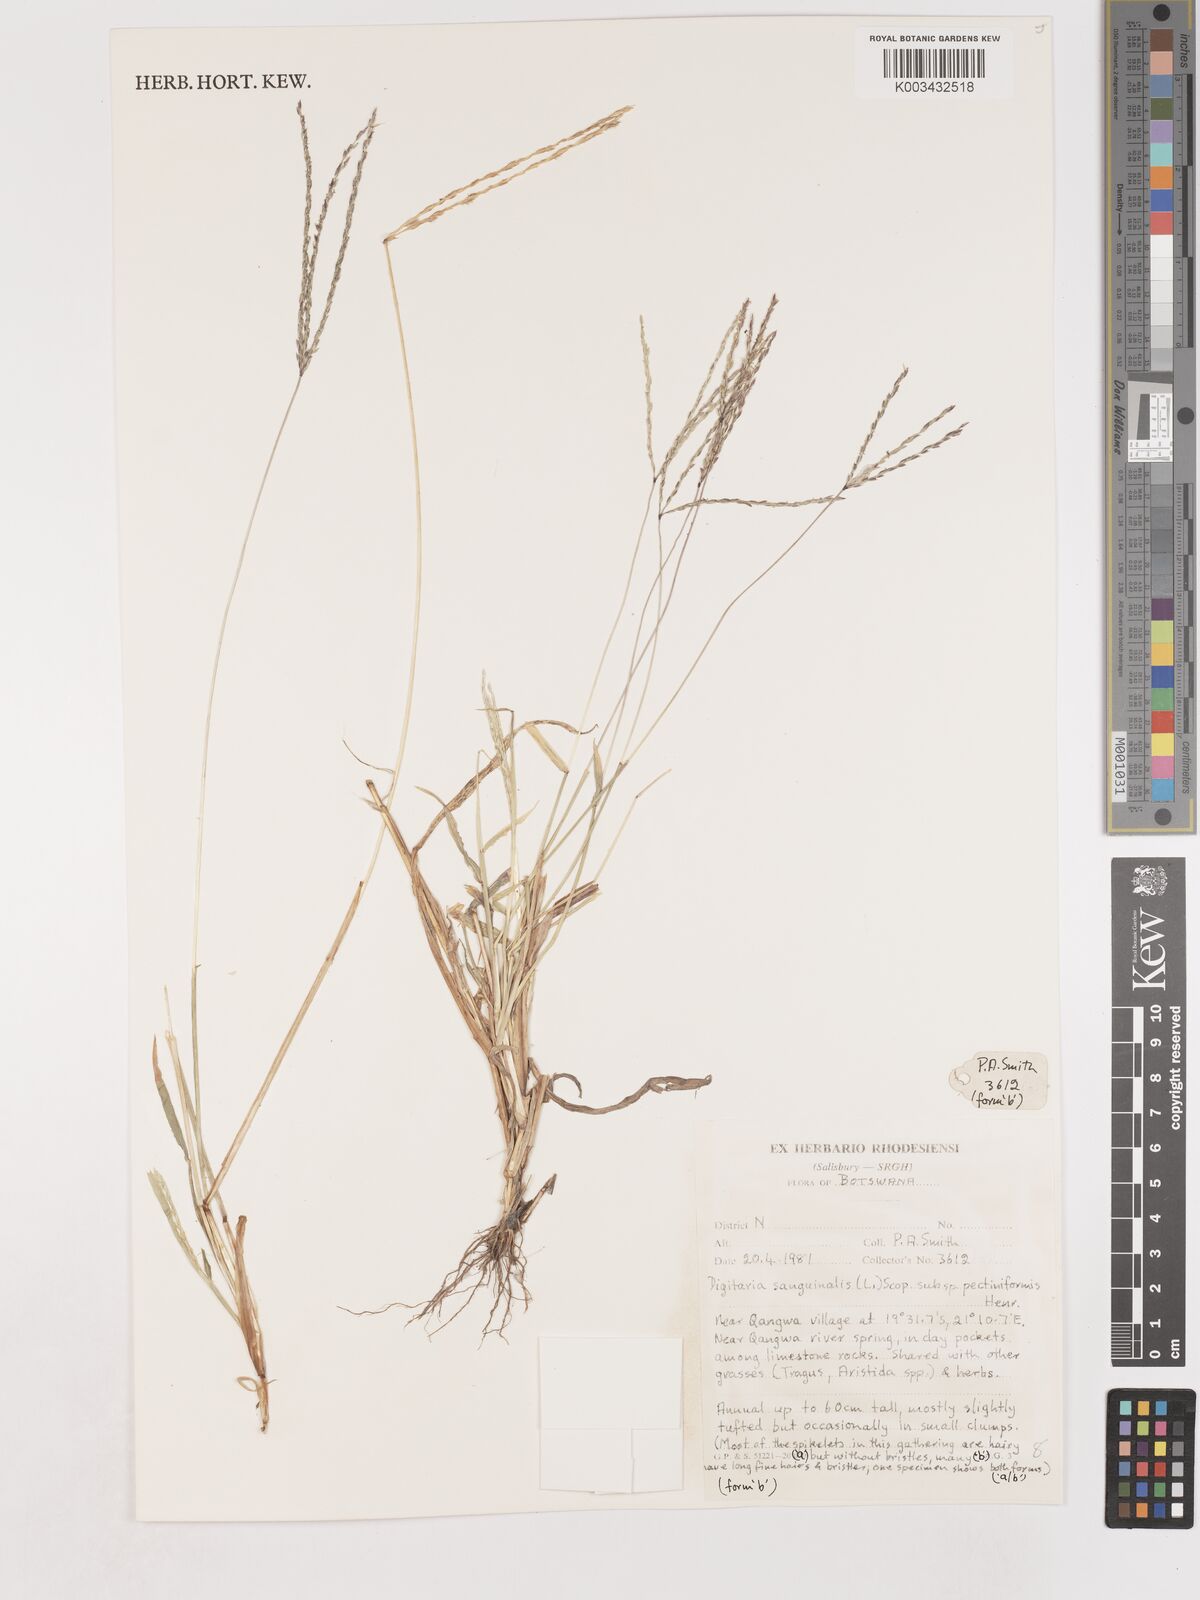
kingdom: Plantae
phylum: Tracheophyta
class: Liliopsida
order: Poales
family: Poaceae
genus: Digitaria
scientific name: Digitaria sanguinalis
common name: Hairy crabgrass
